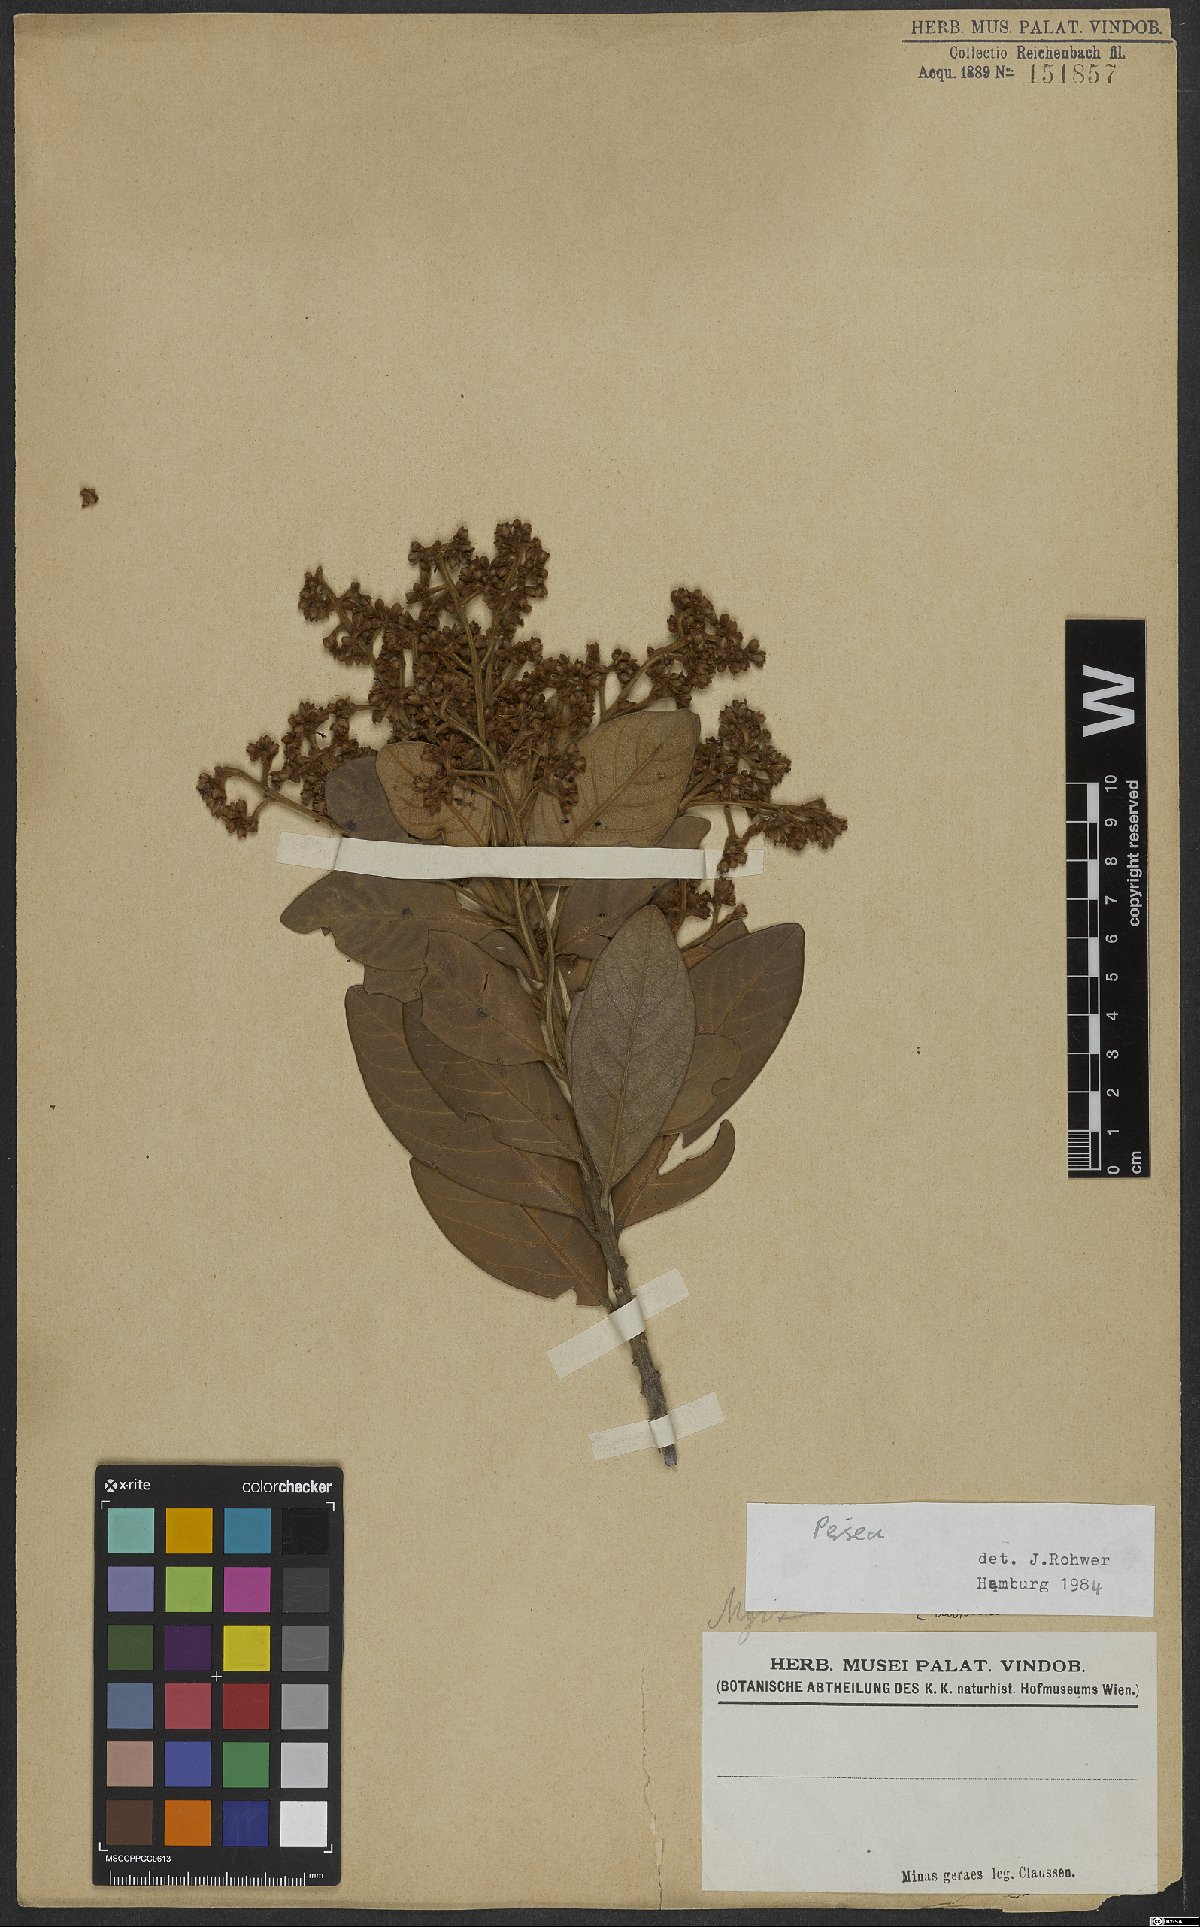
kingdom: Plantae
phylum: Tracheophyta
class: Magnoliopsida
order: Laurales
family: Lauraceae
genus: Persea
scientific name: Persea
